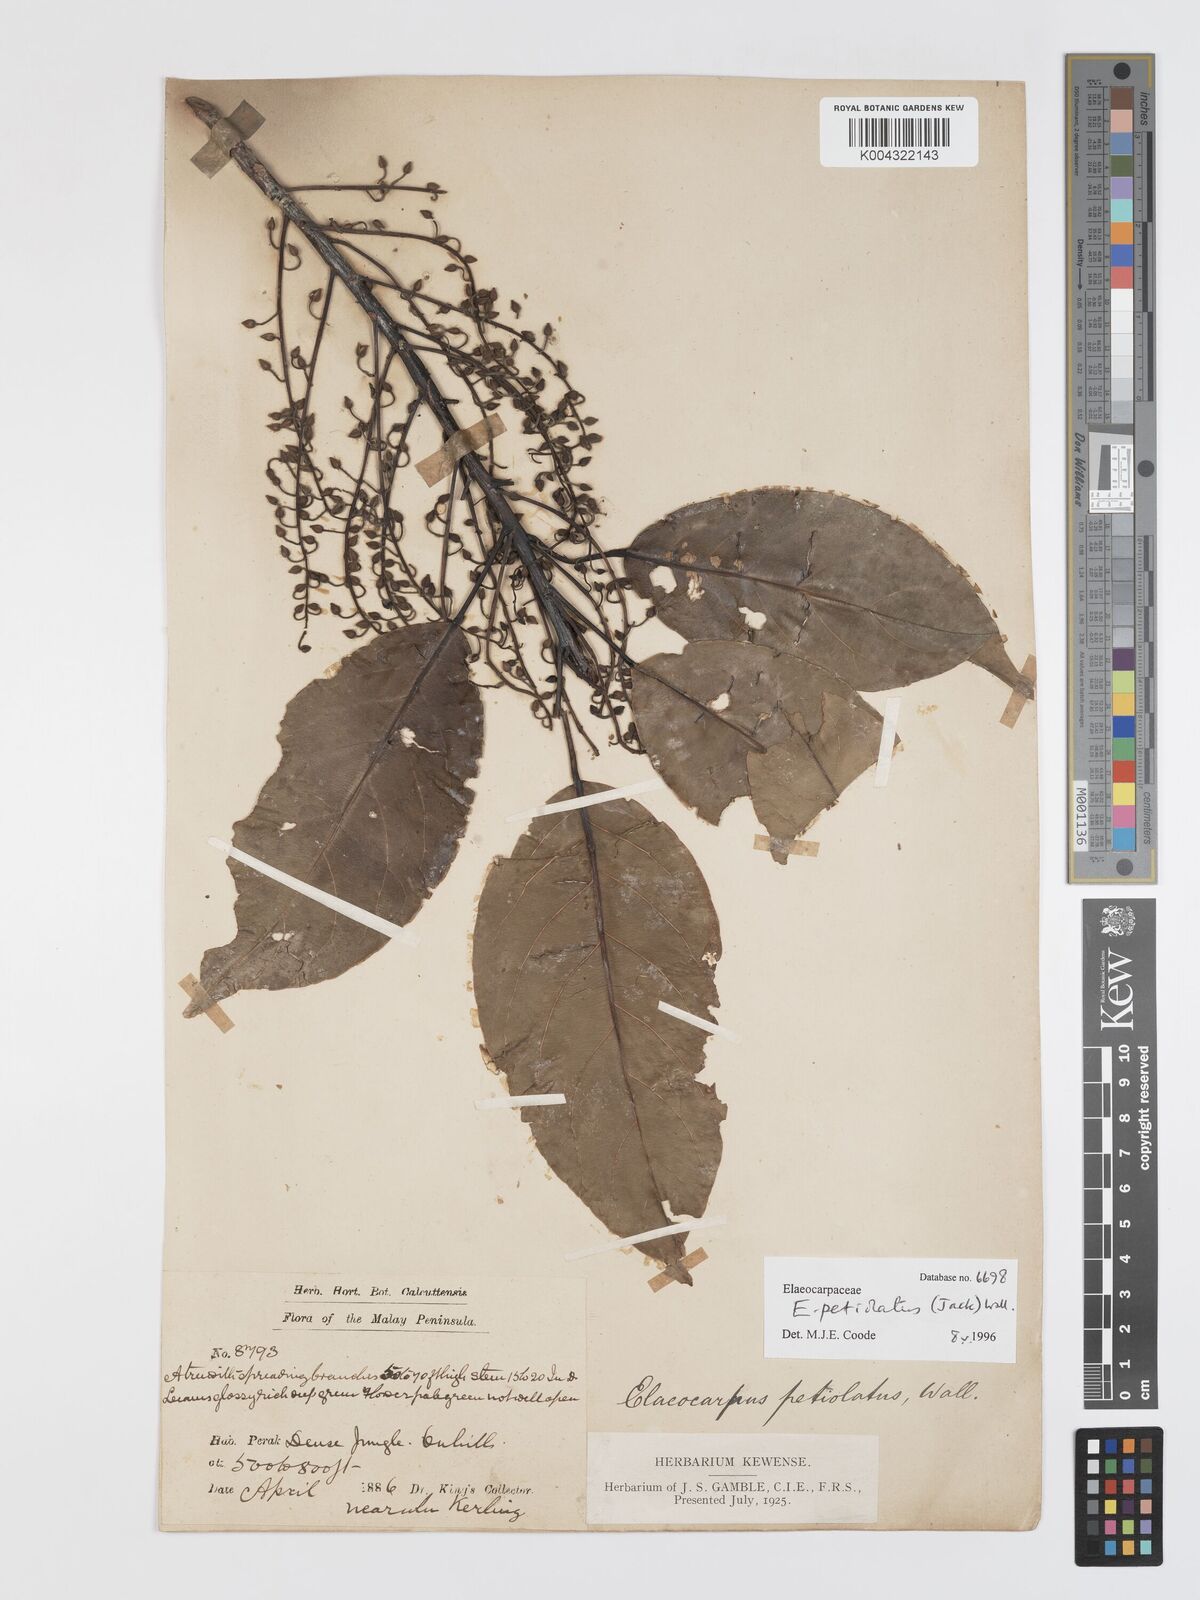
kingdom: Plantae
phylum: Tracheophyta
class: Magnoliopsida
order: Oxalidales
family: Elaeocarpaceae
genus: Elaeocarpus
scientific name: Elaeocarpus petiolatus
